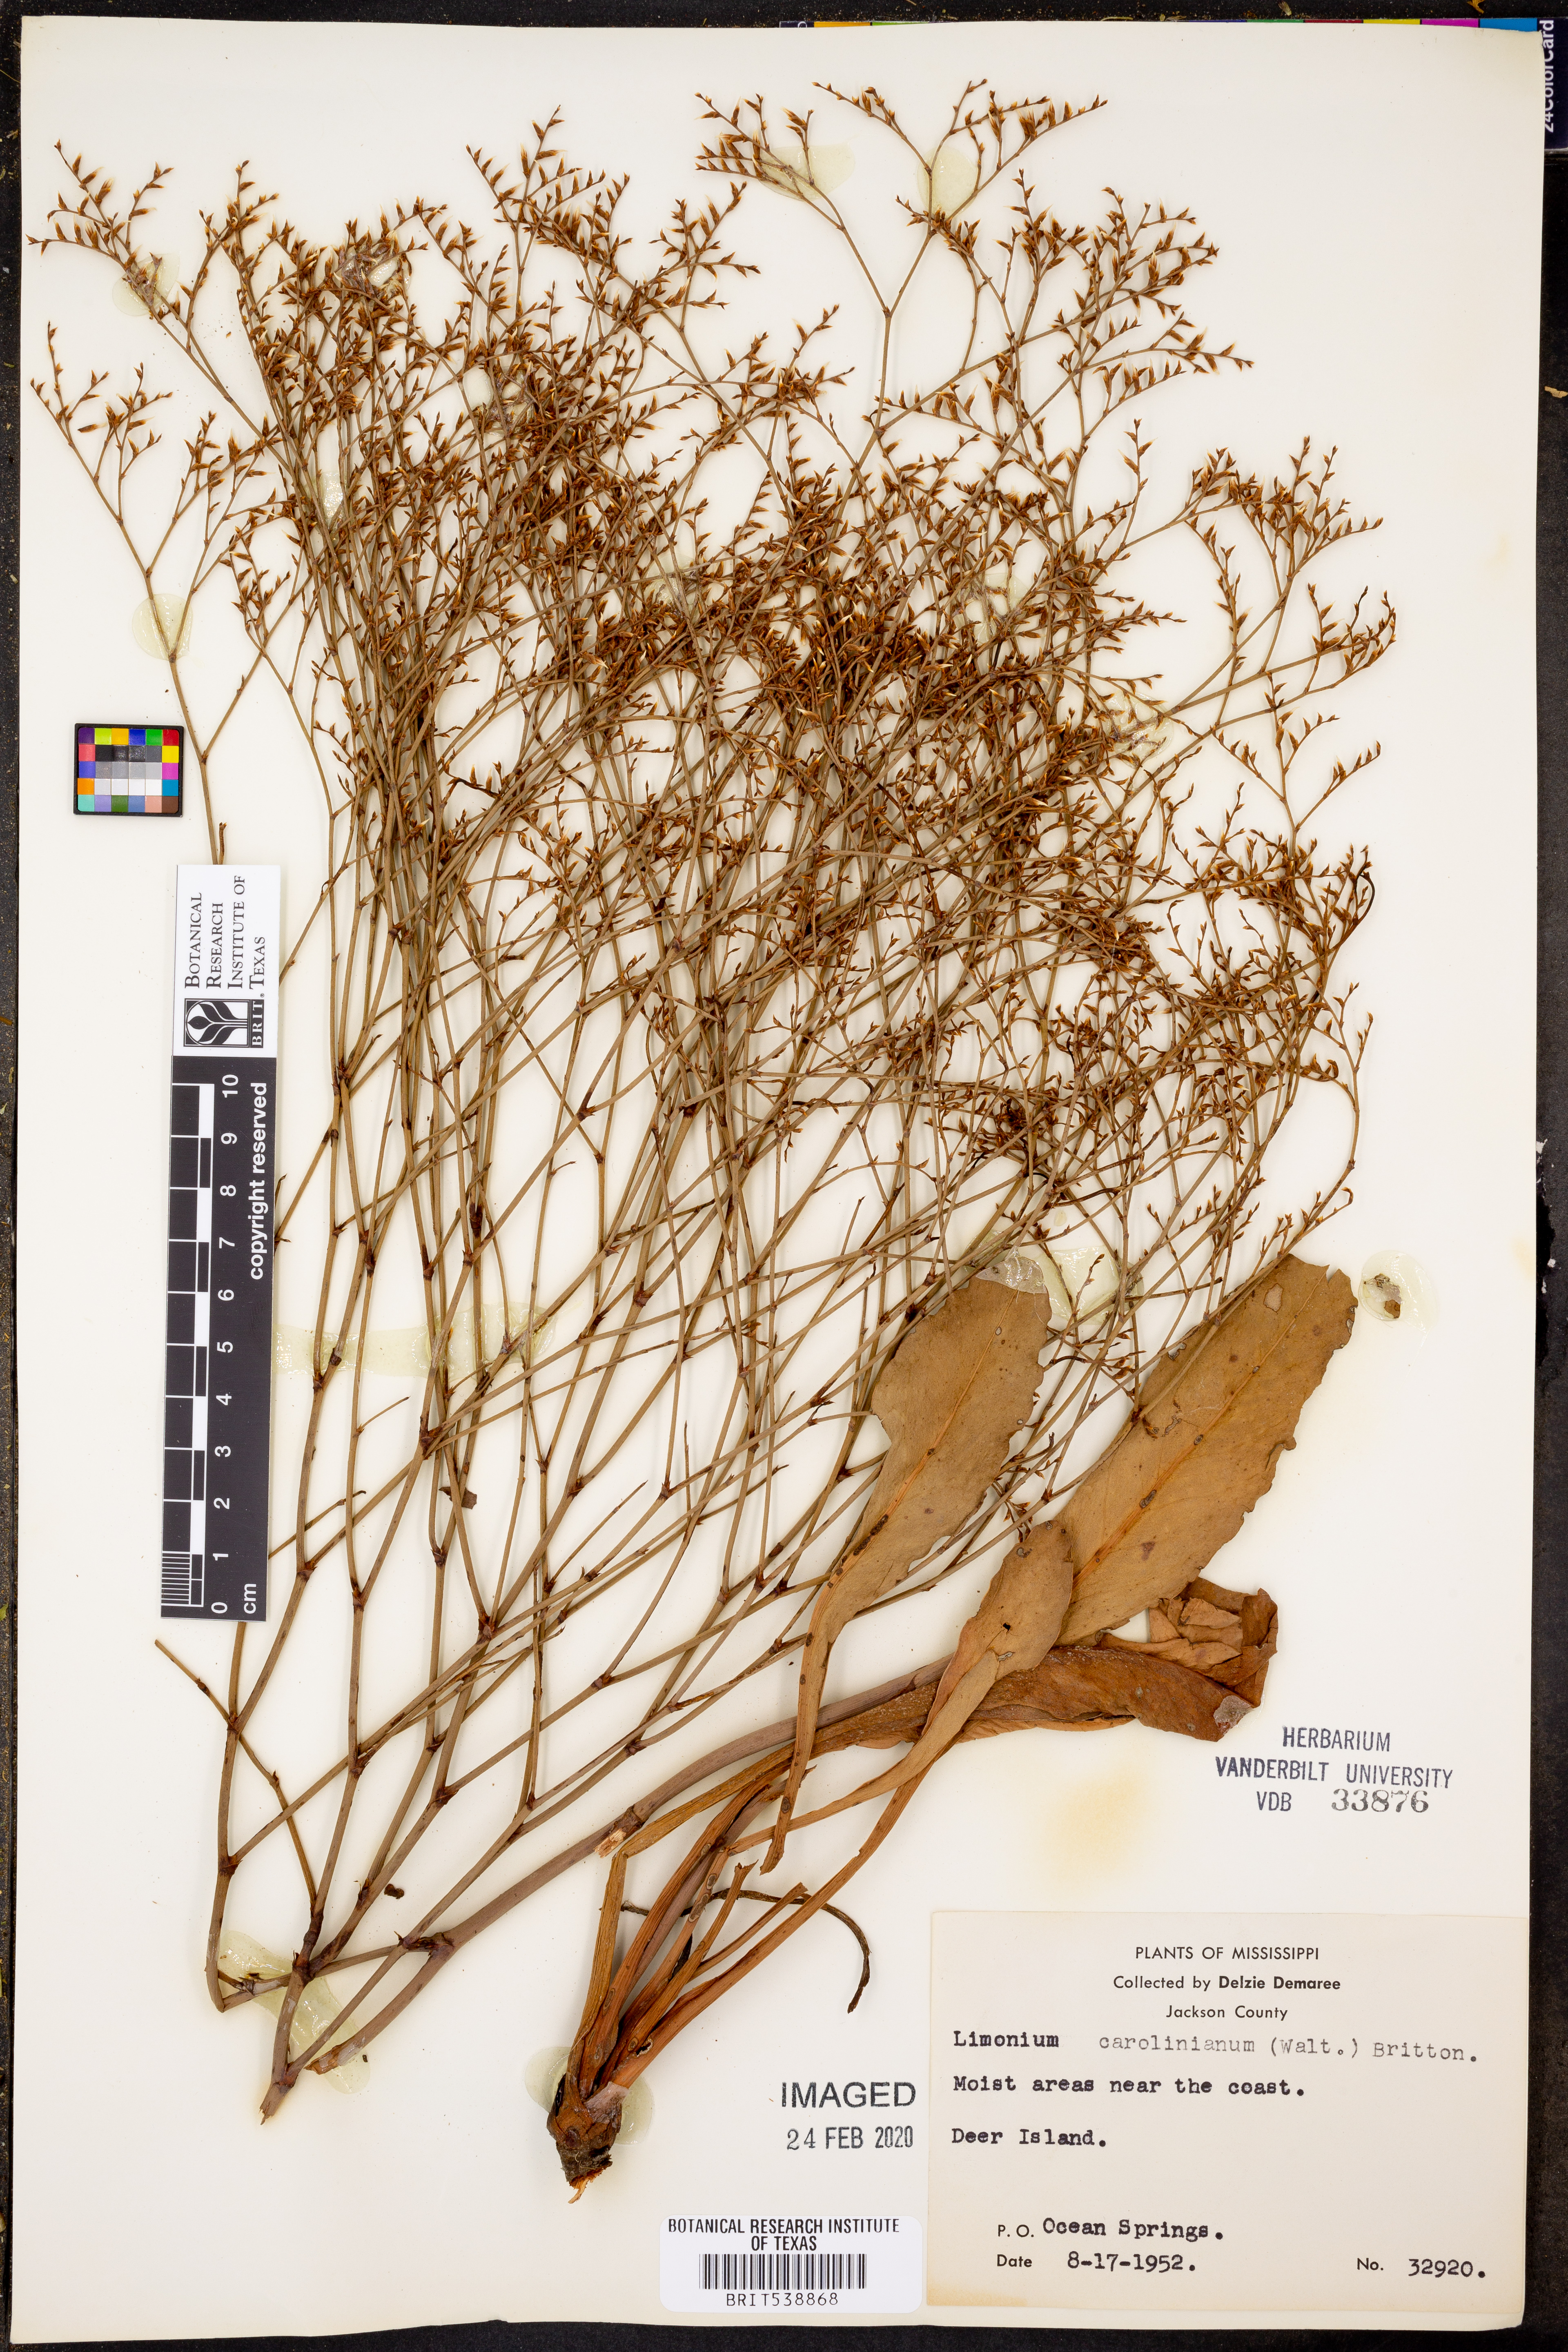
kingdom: Plantae
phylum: Tracheophyta
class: Magnoliopsida
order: Caryophyllales
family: Plumbaginaceae
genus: Limonium
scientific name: Limonium carolinianum
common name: Carolina sea lavender
